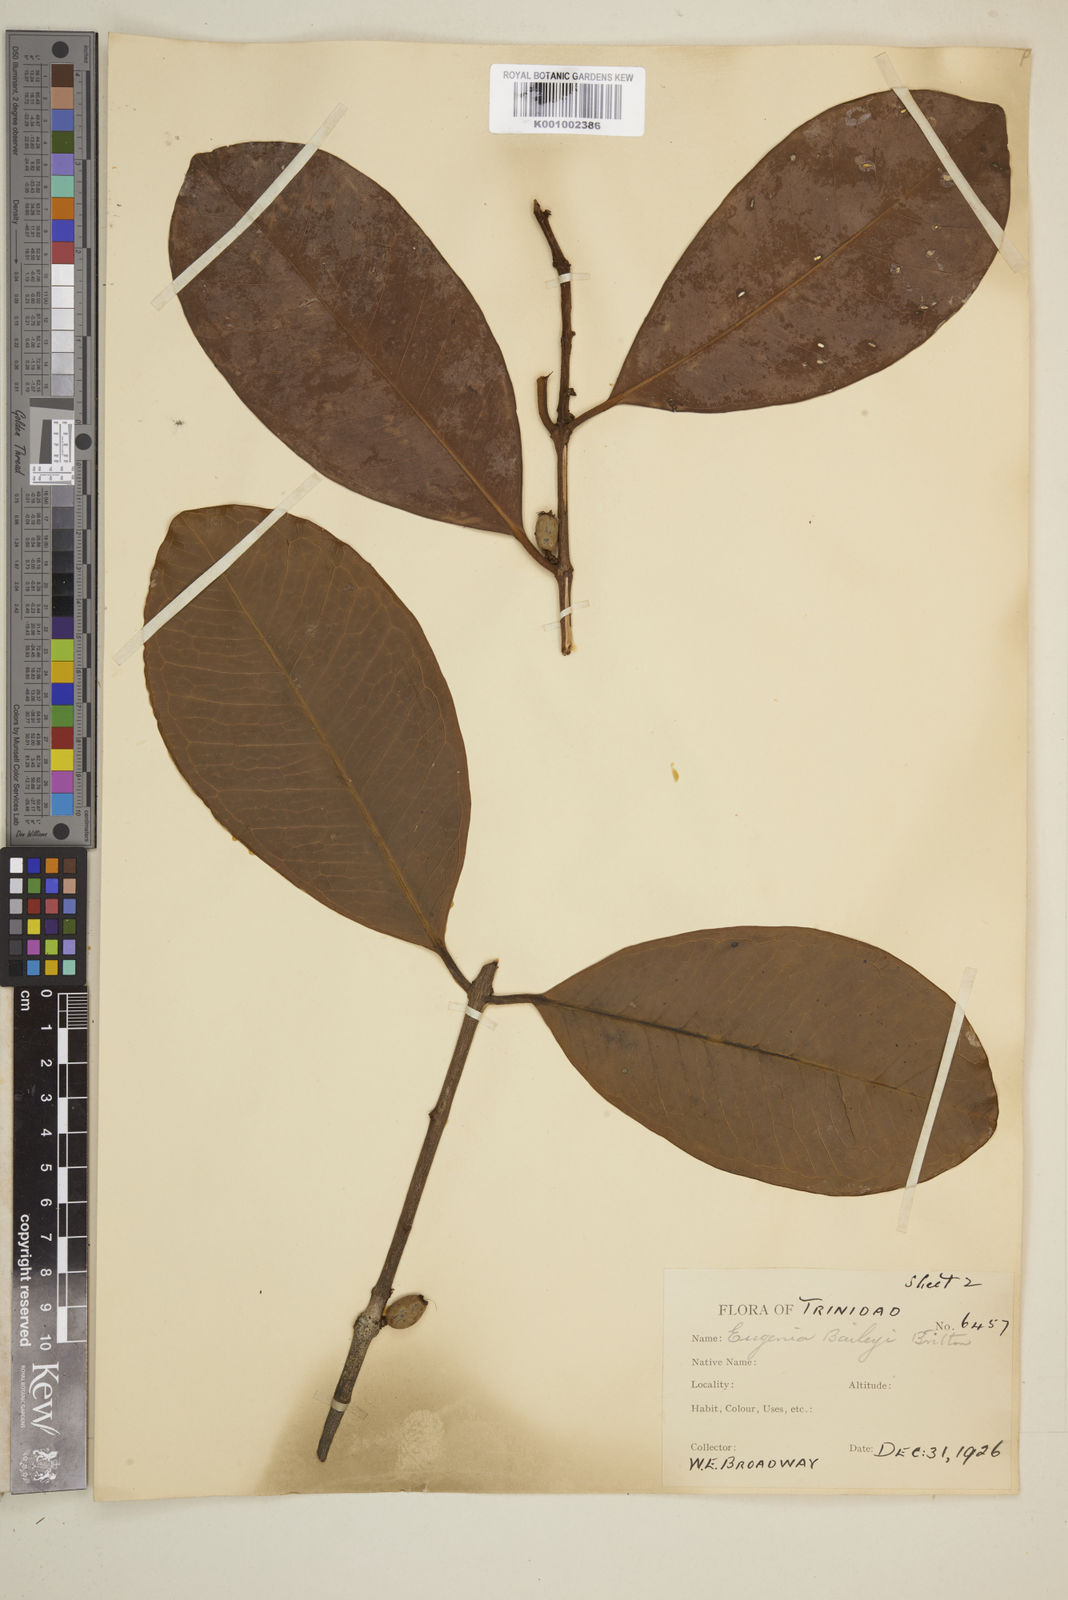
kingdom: Plantae
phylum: Tracheophyta
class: Magnoliopsida
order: Myrtales
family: Myrtaceae
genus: Eugenia
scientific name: Eugenia baileyi
